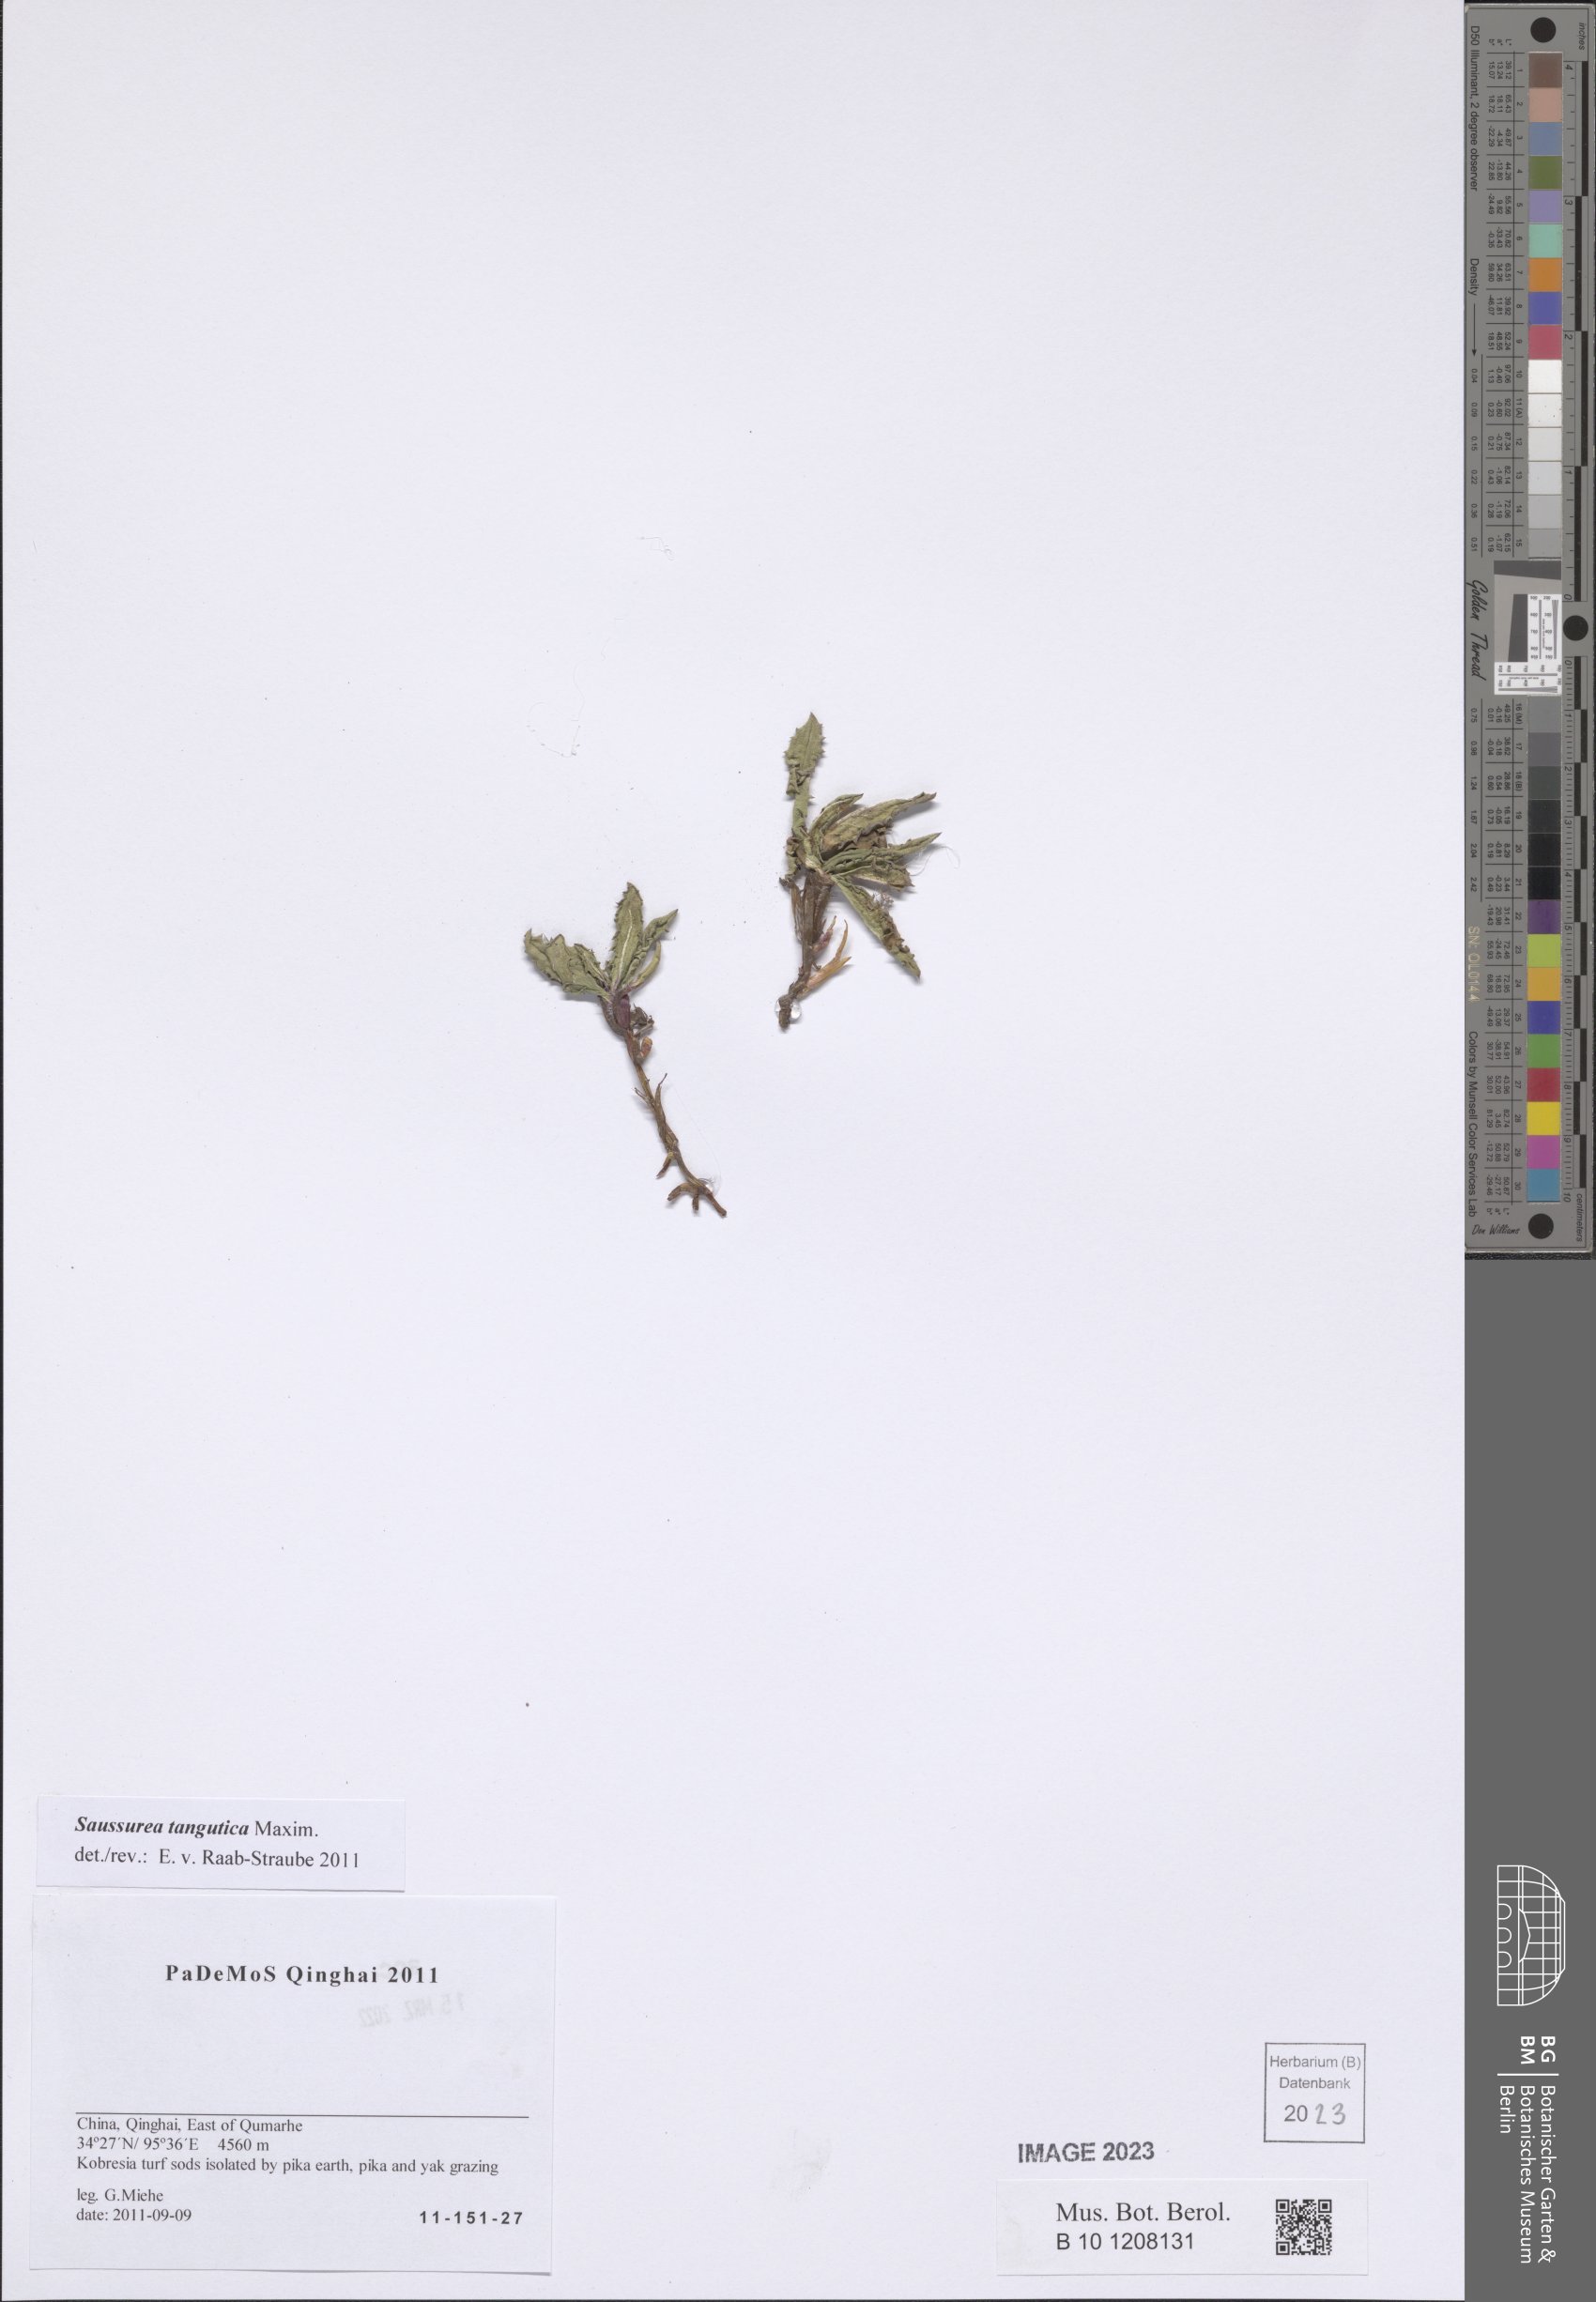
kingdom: Plantae
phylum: Tracheophyta
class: Magnoliopsida
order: Asterales
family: Asteraceae
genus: Saussurea
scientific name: Saussurea tangutica
